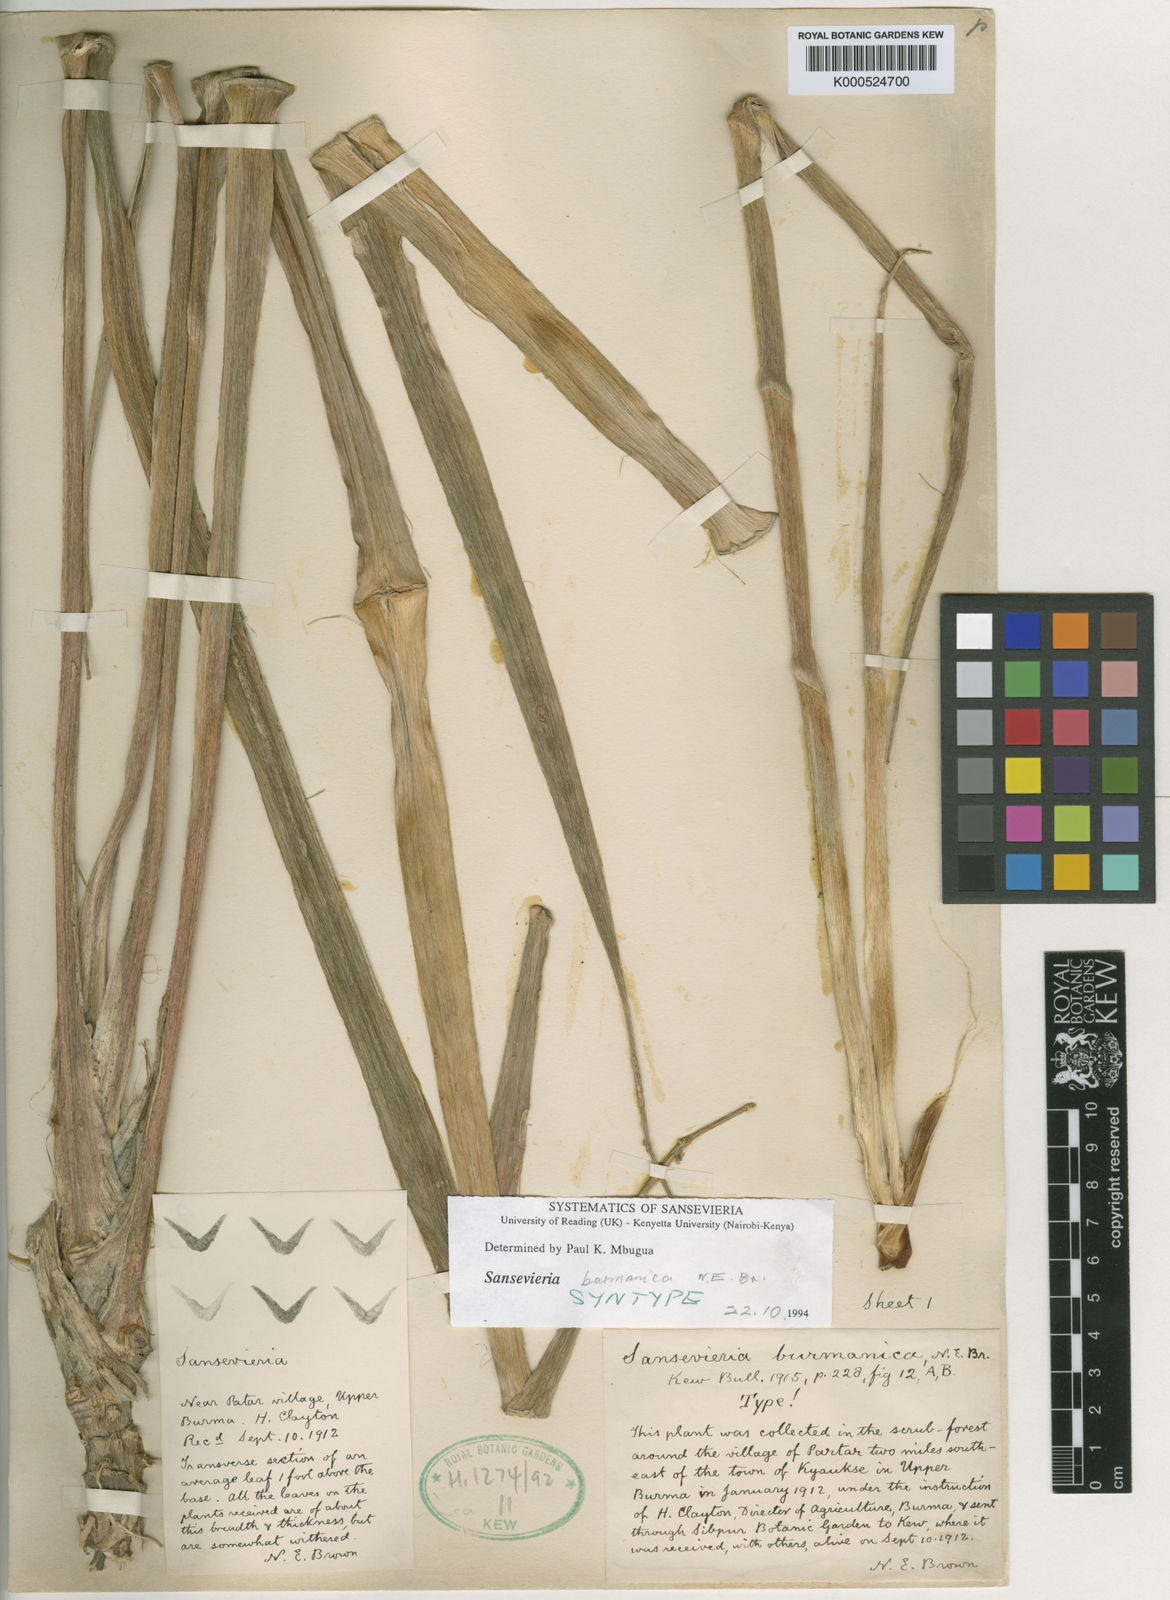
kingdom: Plantae
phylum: Tracheophyta
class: Liliopsida
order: Asparagales
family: Asparagaceae
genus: Dracaena
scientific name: Dracaena burmanica
